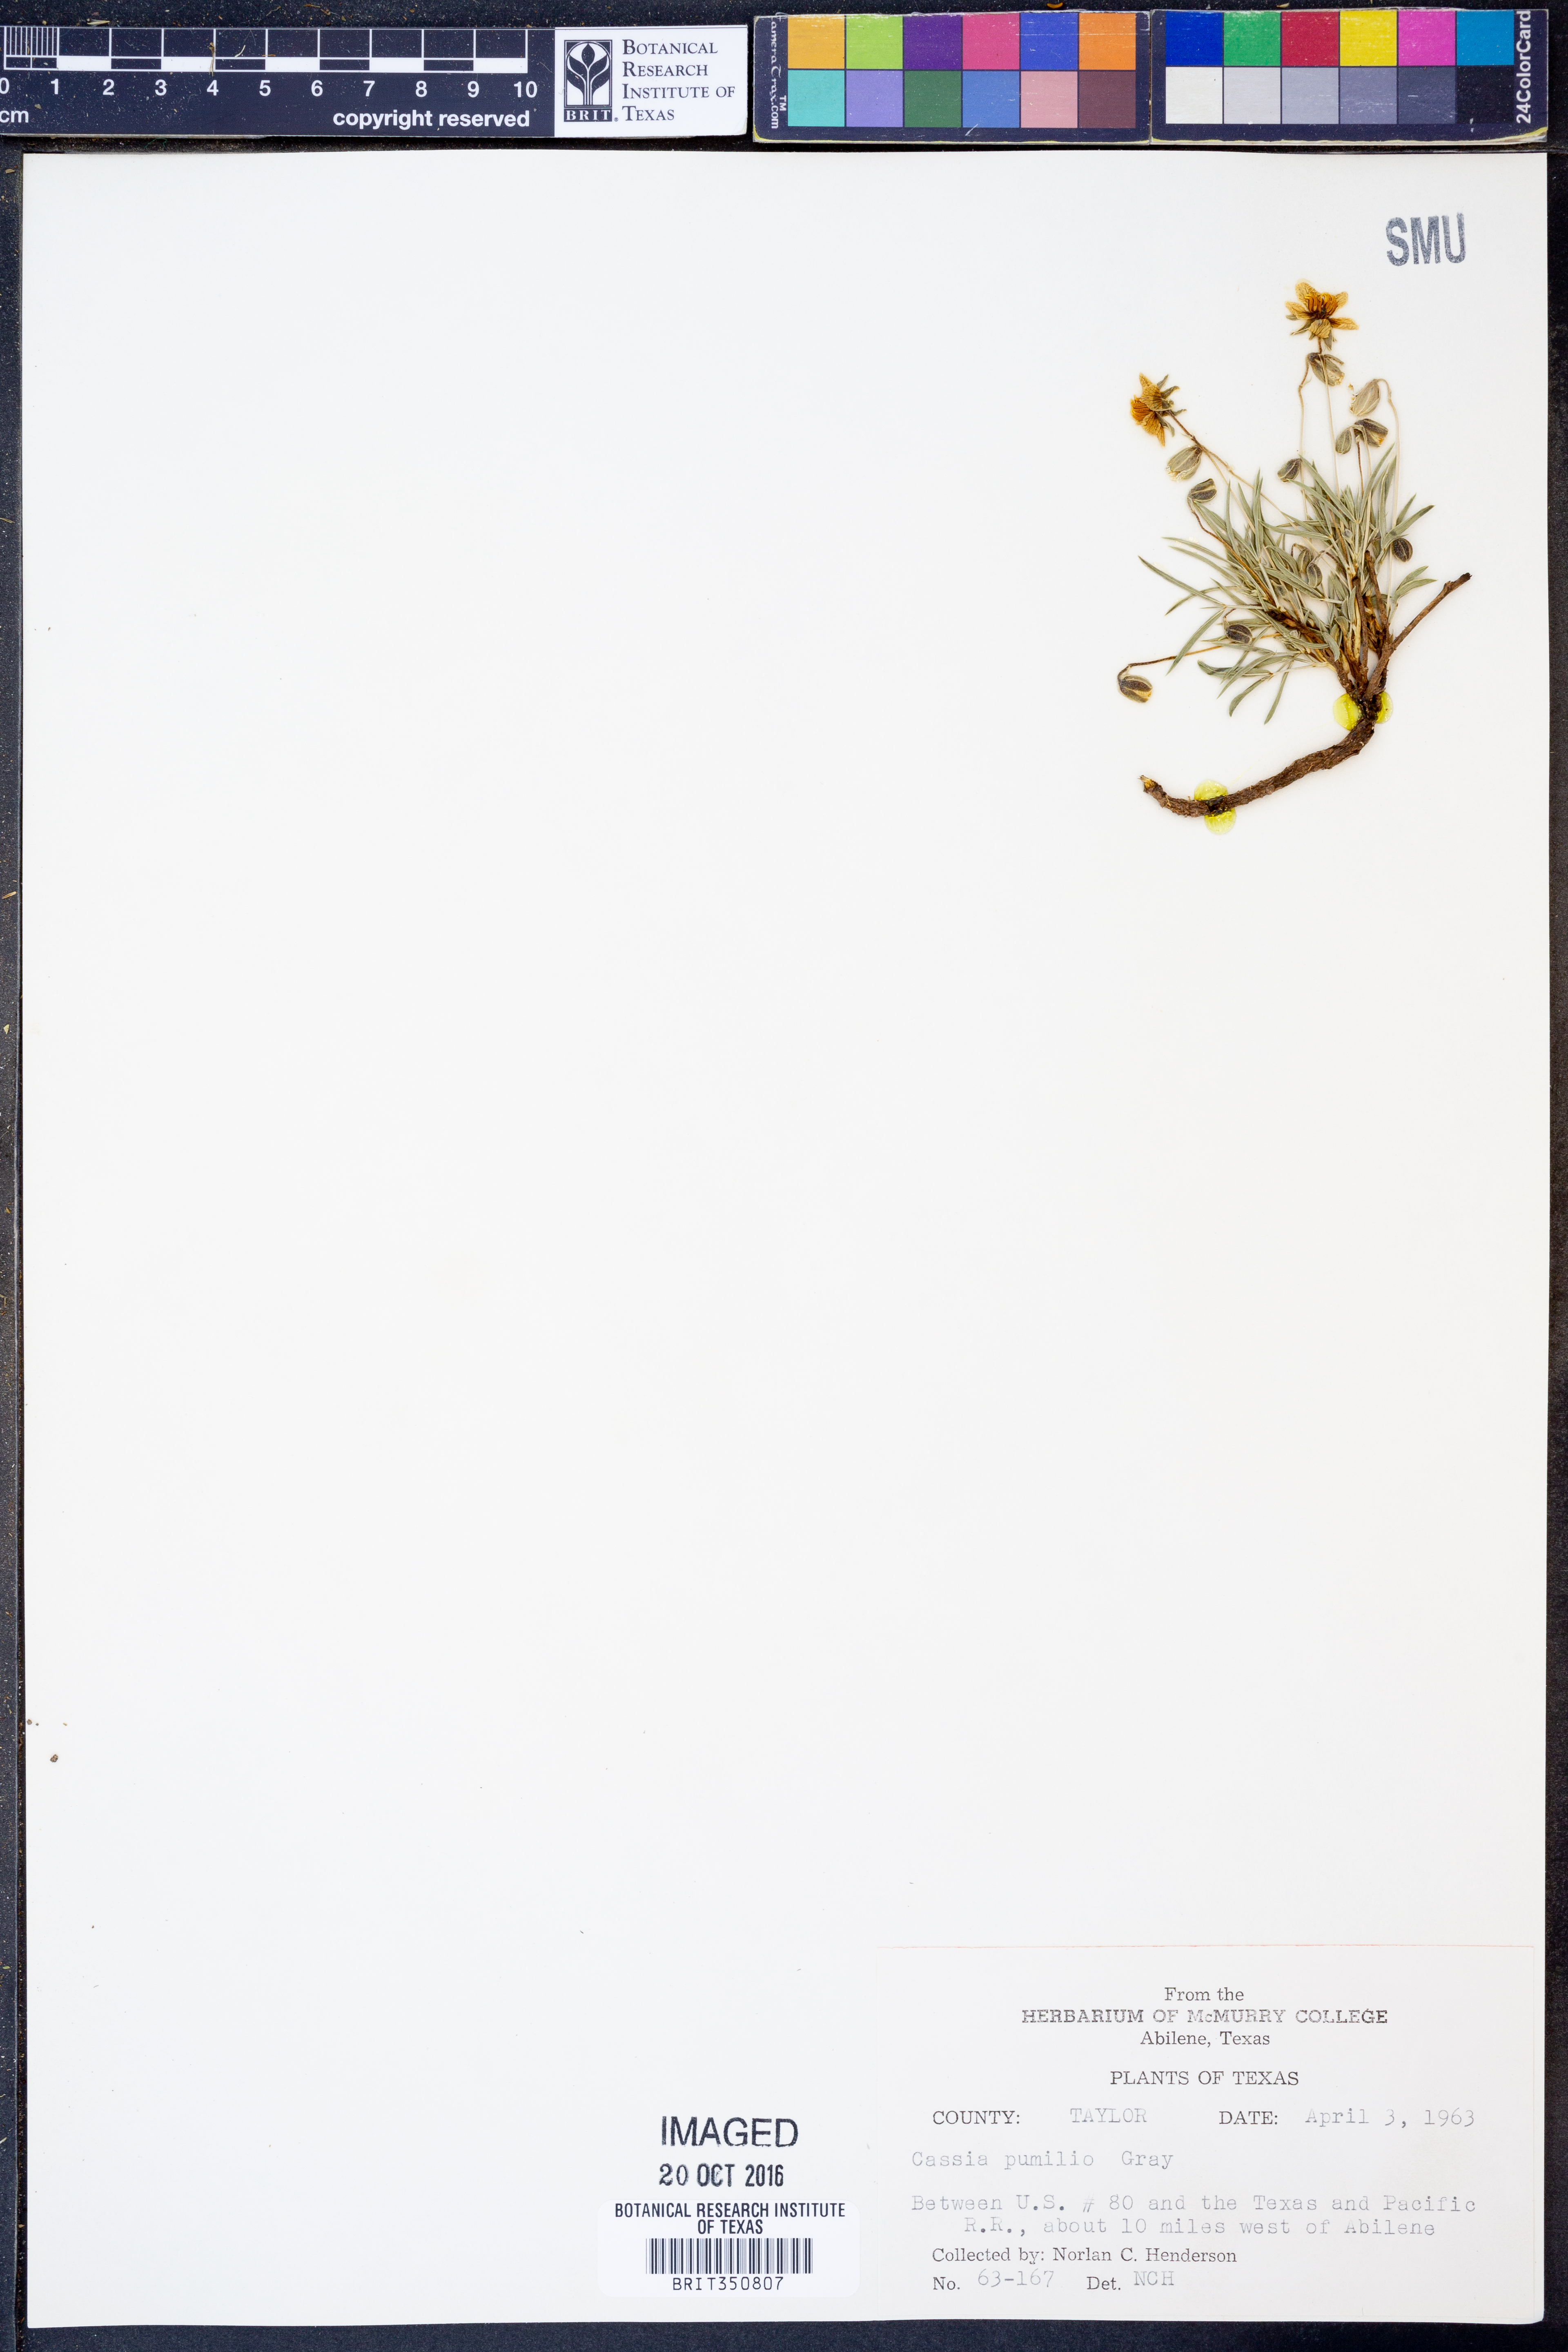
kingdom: Plantae
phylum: Tracheophyta
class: Magnoliopsida
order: Fabales
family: Fabaceae
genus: Senna
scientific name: Senna pumilio
